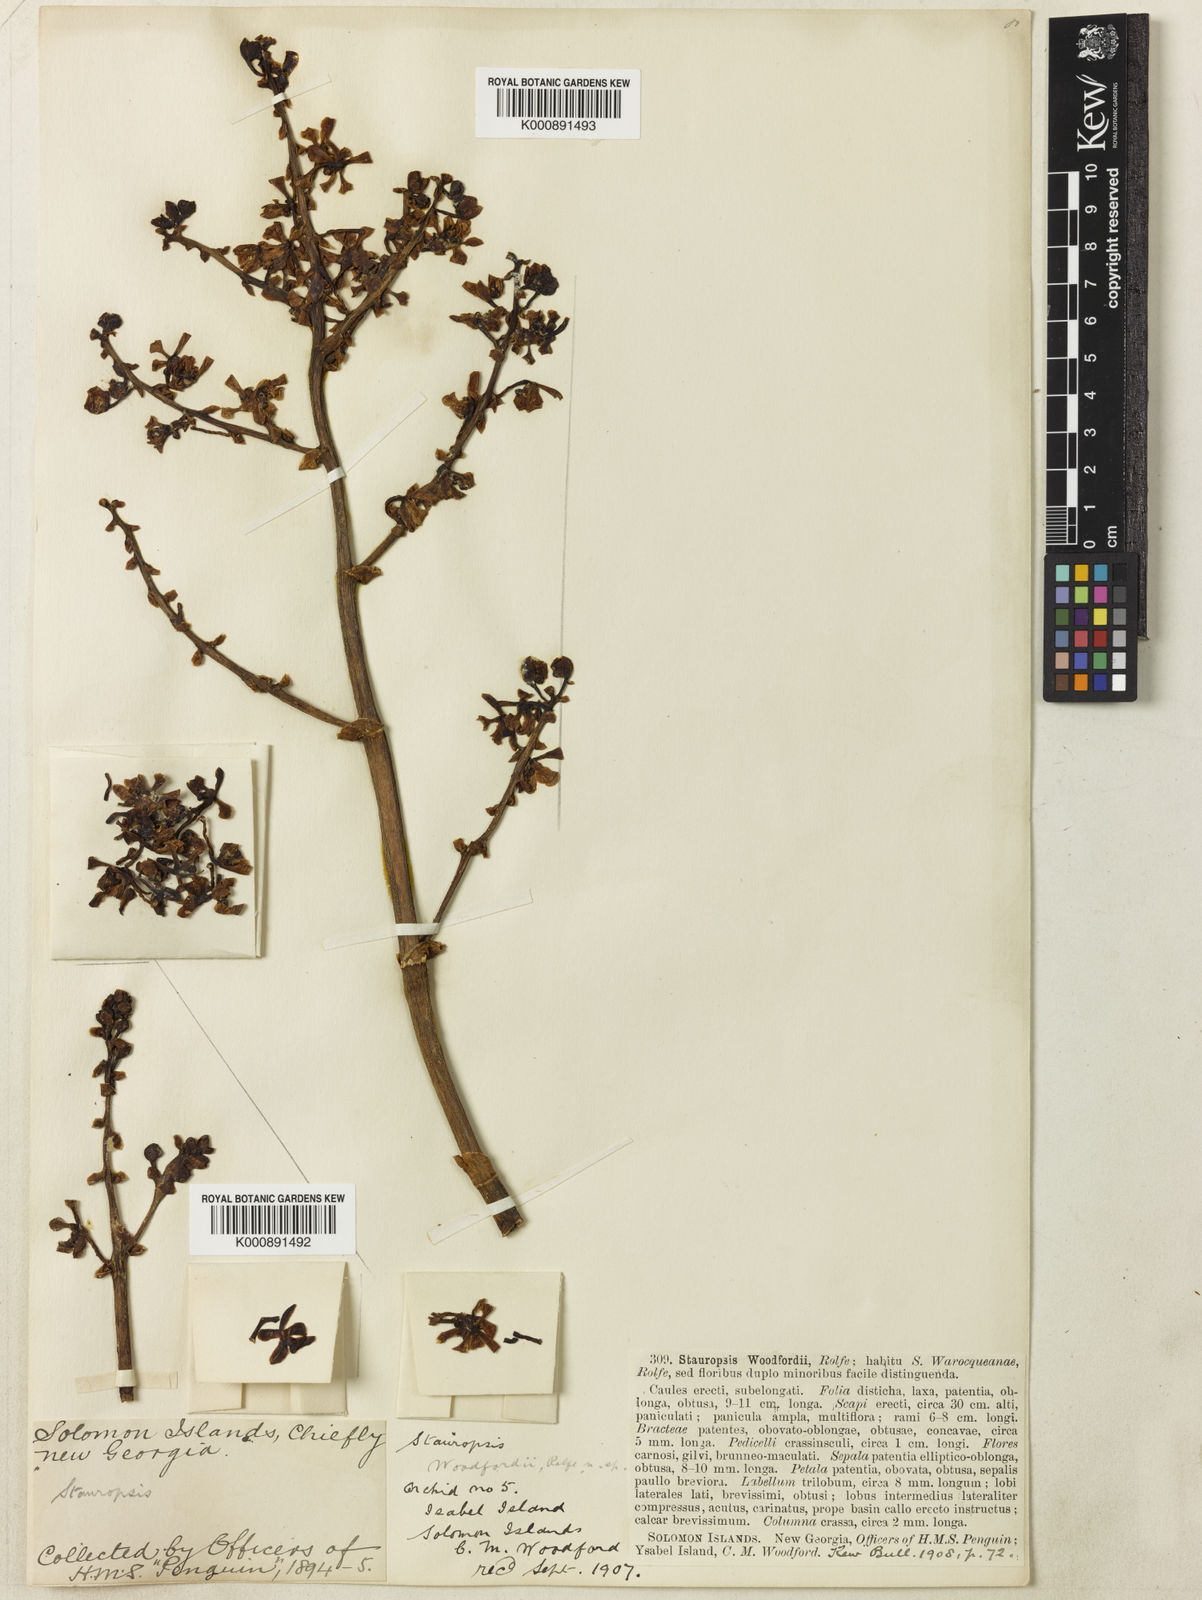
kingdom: Plantae
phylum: Tracheophyta
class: Liliopsida
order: Asparagales
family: Orchidaceae
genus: Sarcanthopsis
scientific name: Sarcanthopsis woodfordii
